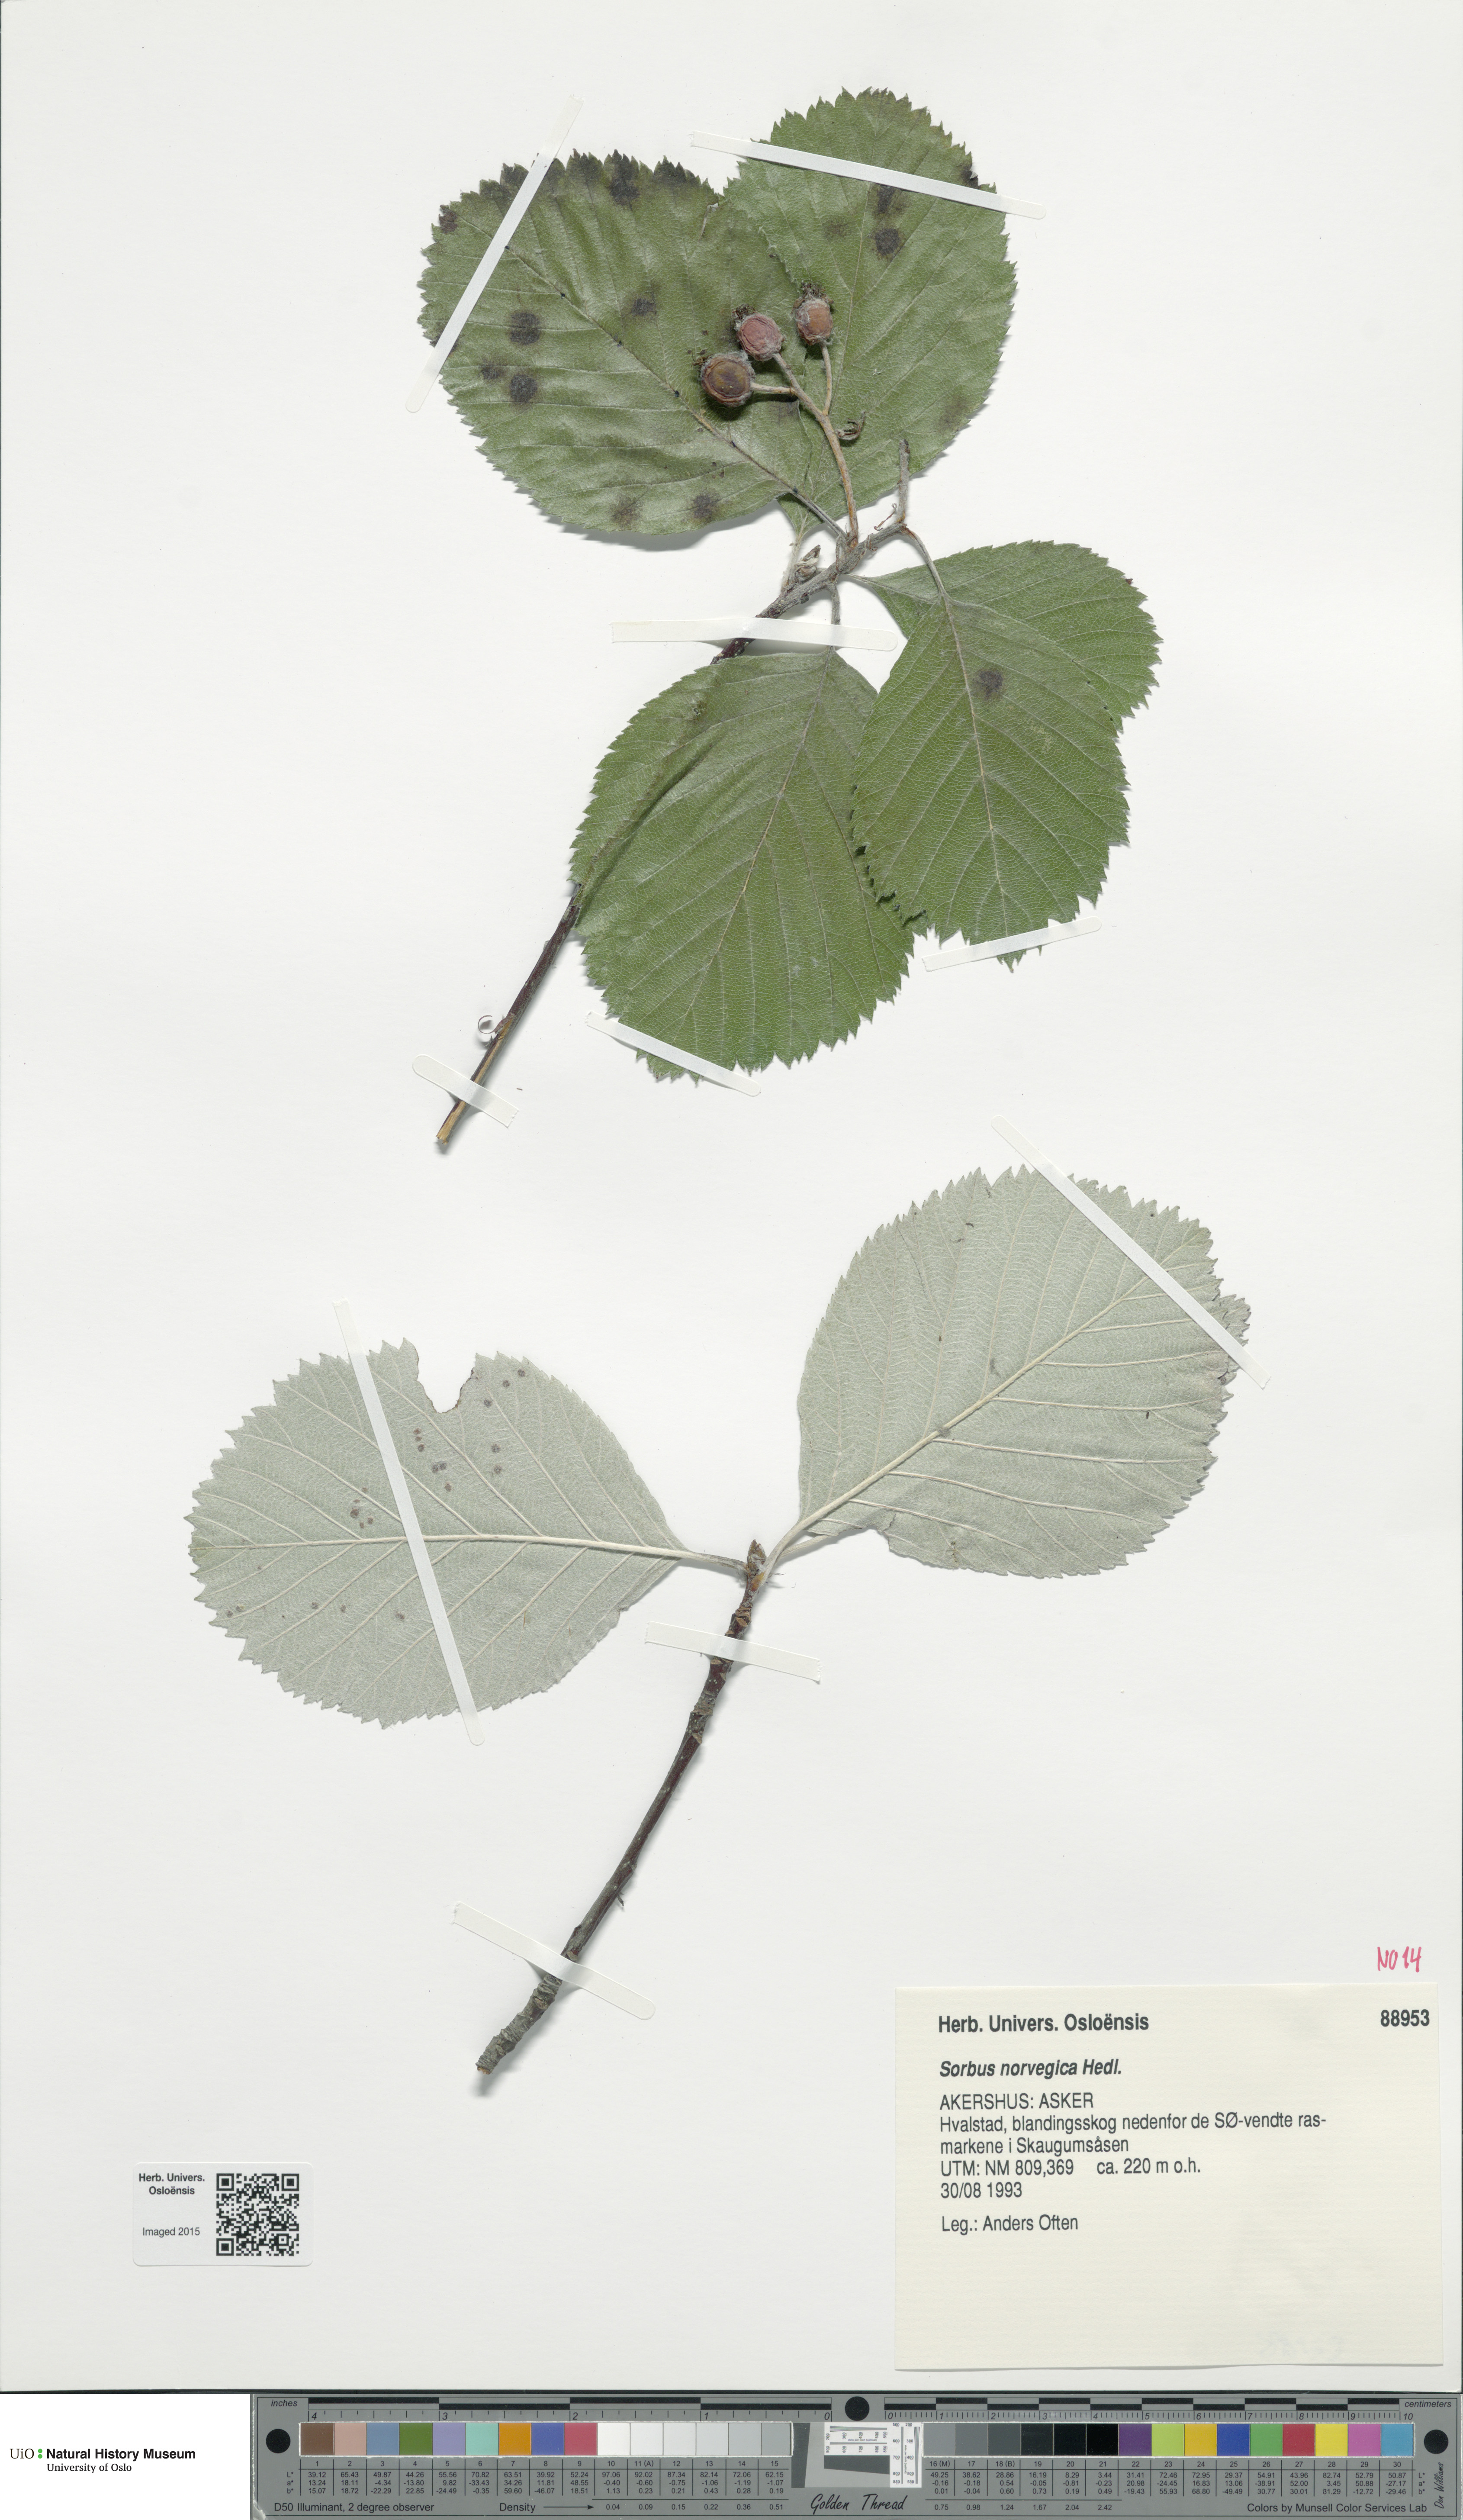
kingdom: Plantae
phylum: Tracheophyta
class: Magnoliopsida
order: Rosales
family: Rosaceae
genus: Aria
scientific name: Aria obtusifolia
